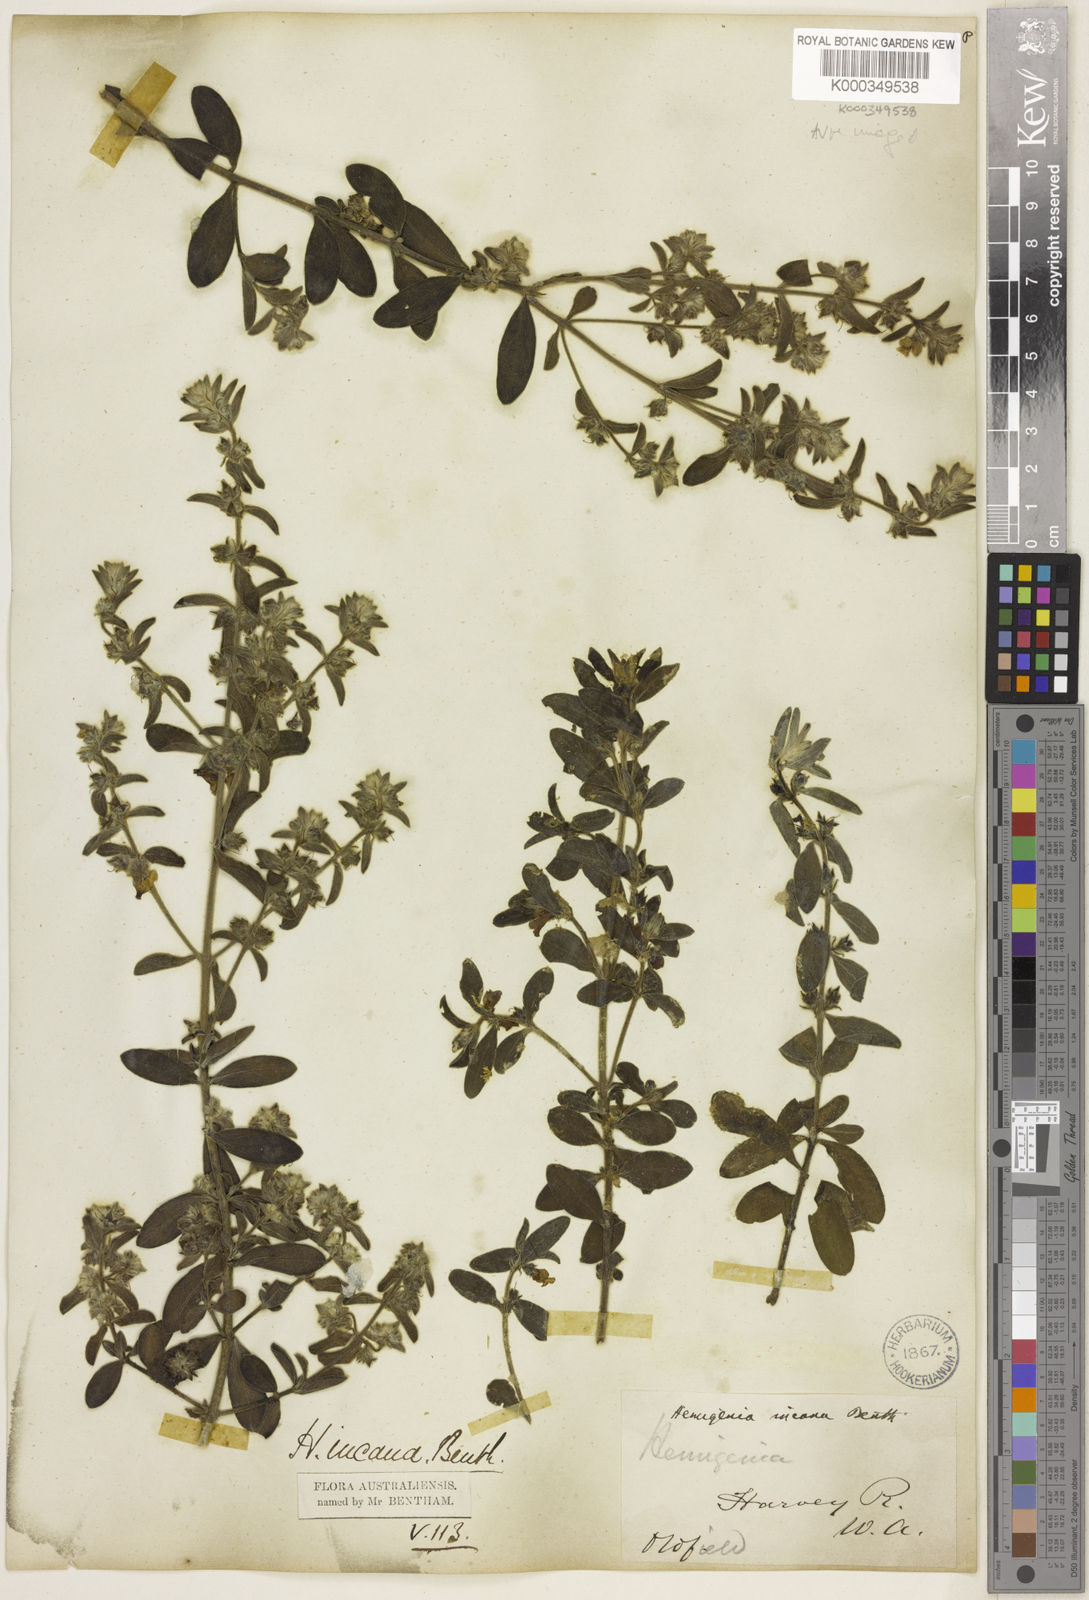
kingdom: Plantae
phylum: Tracheophyta
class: Magnoliopsida
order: Lamiales
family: Lamiaceae
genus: Hemigenia
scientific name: Hemigenia incana
